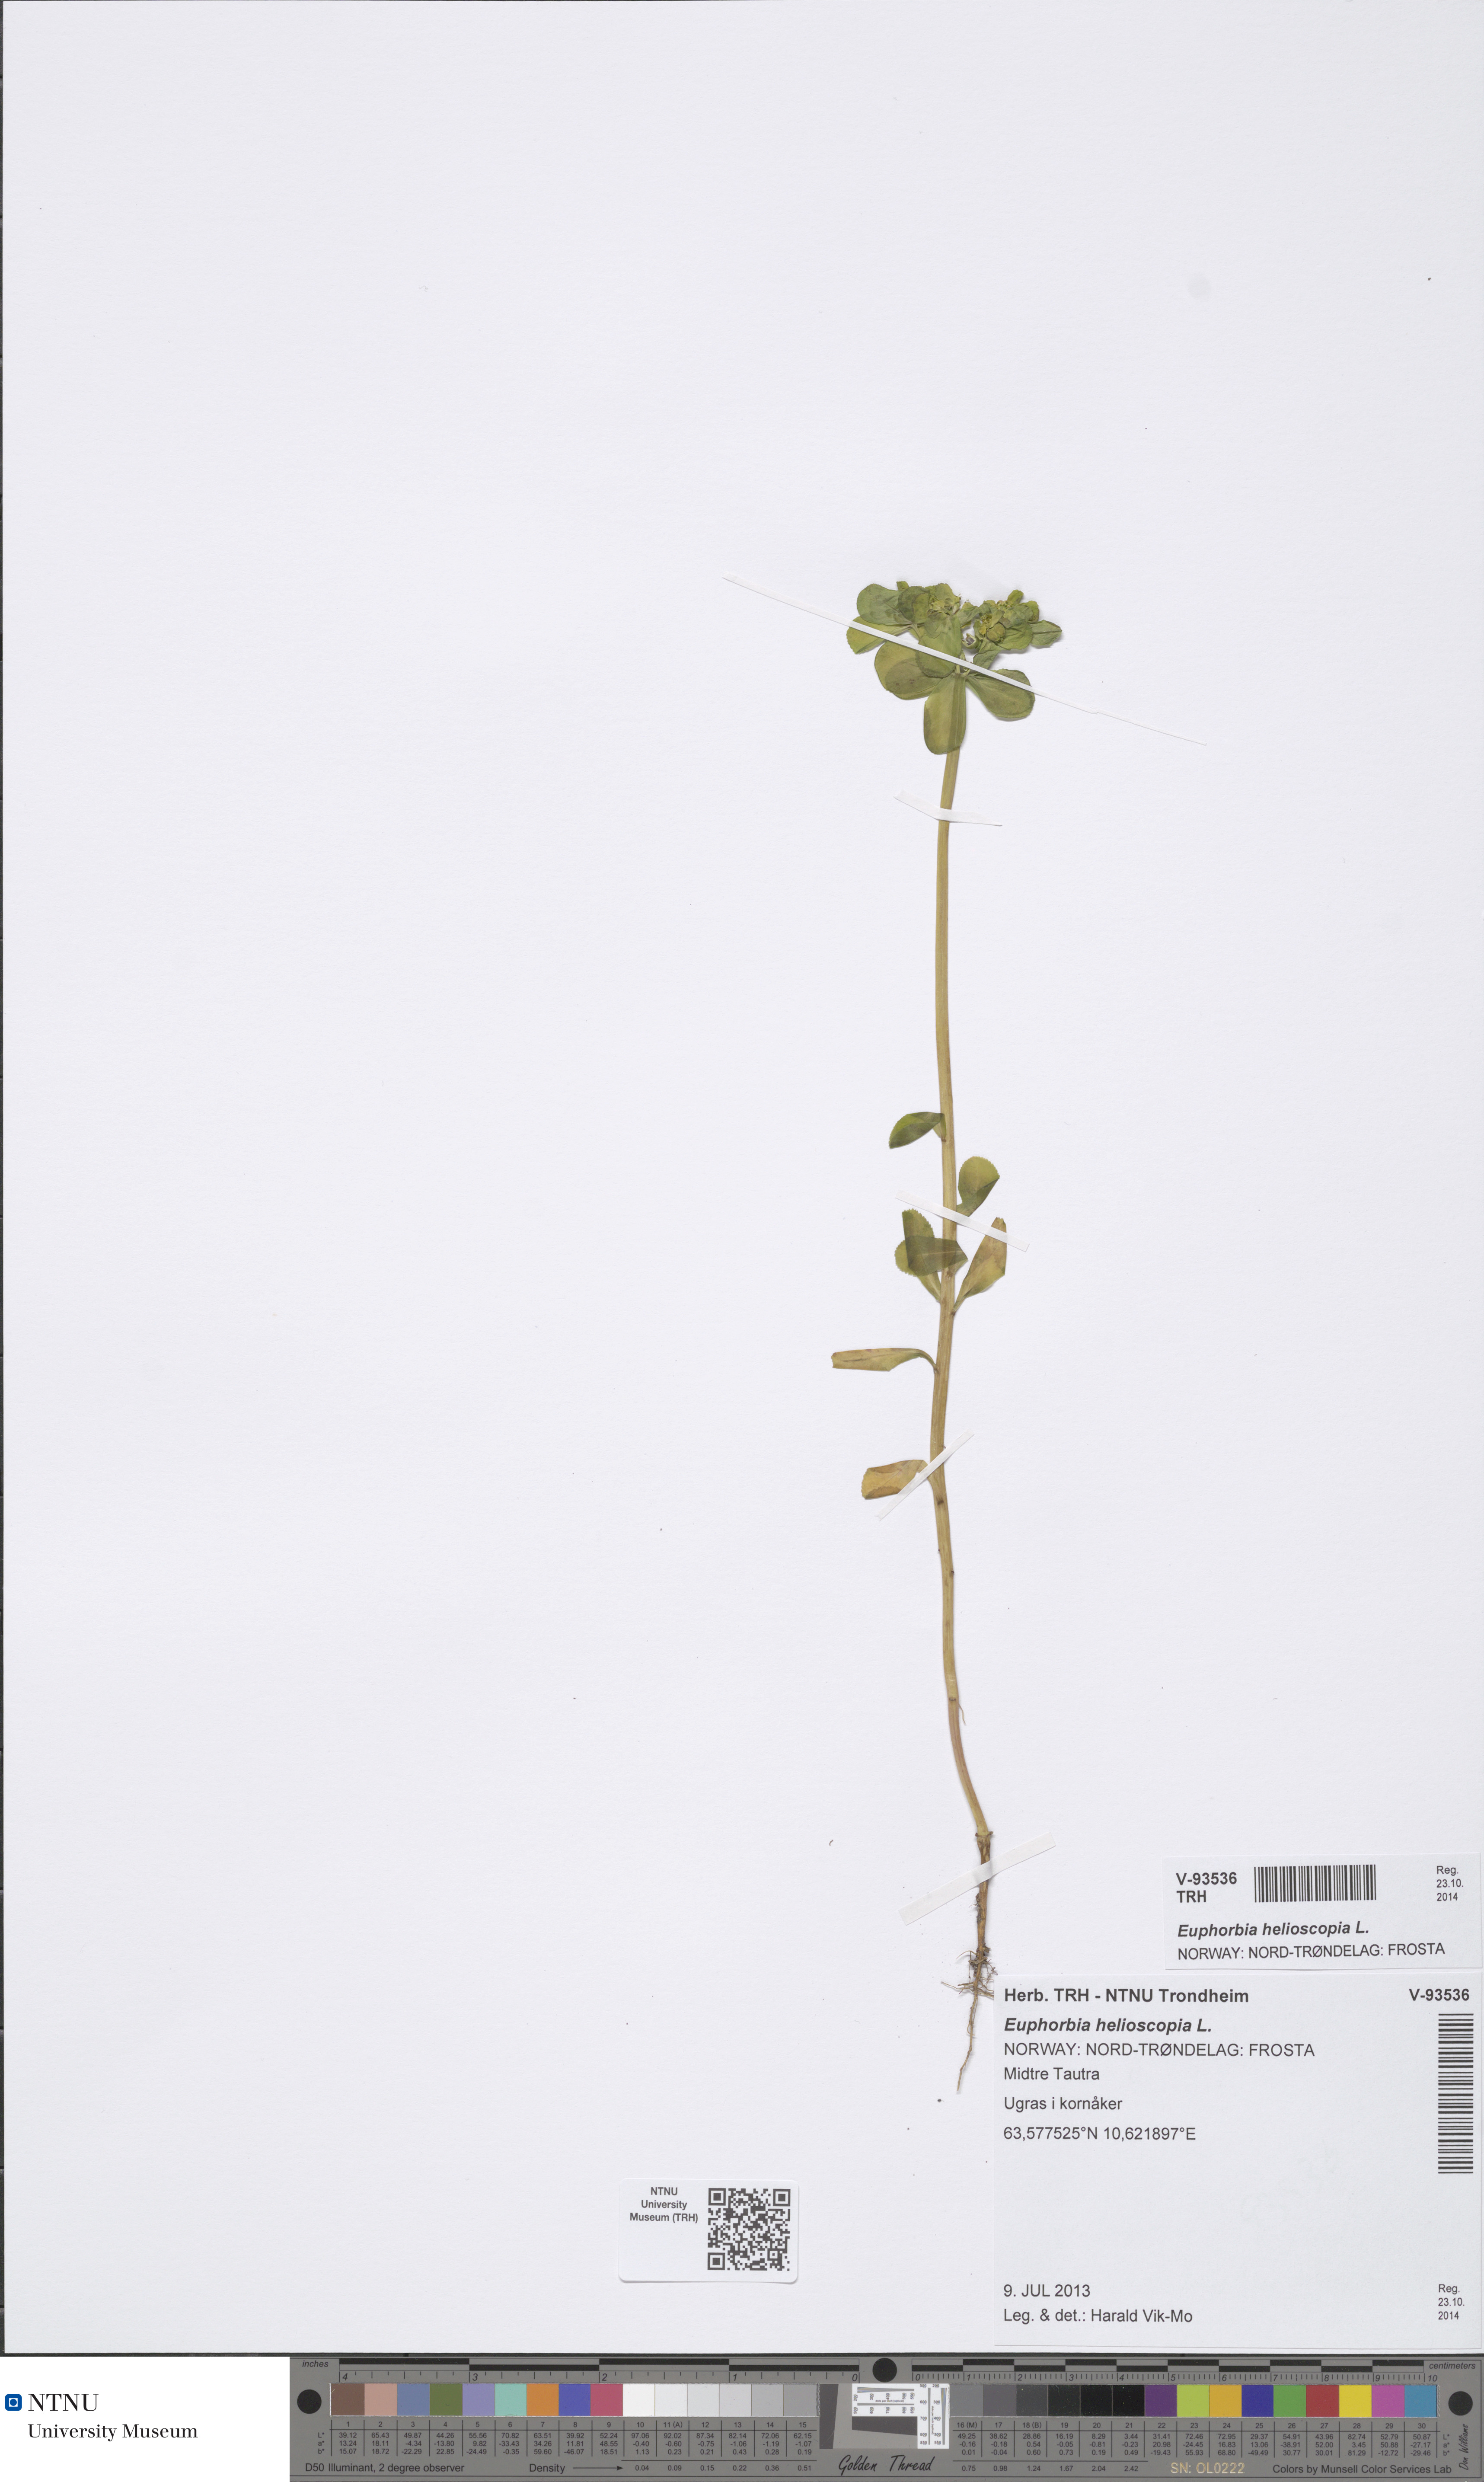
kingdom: Plantae
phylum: Tracheophyta
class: Magnoliopsida
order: Malpighiales
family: Euphorbiaceae
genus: Euphorbia
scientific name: Euphorbia helioscopia
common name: Sun spurge
